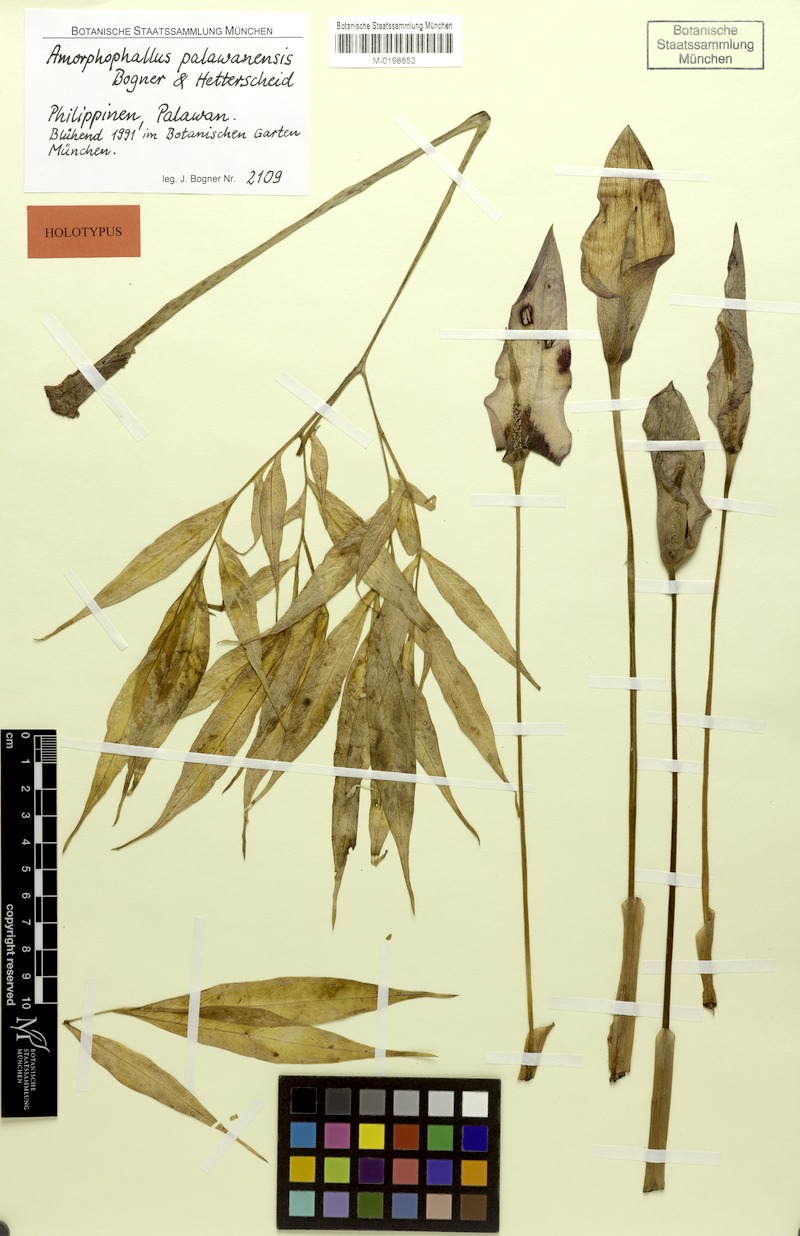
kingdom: Plantae
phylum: Tracheophyta
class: Liliopsida
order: Alismatales
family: Araceae
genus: Amorphophallus
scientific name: Amorphophallus palawanensis
